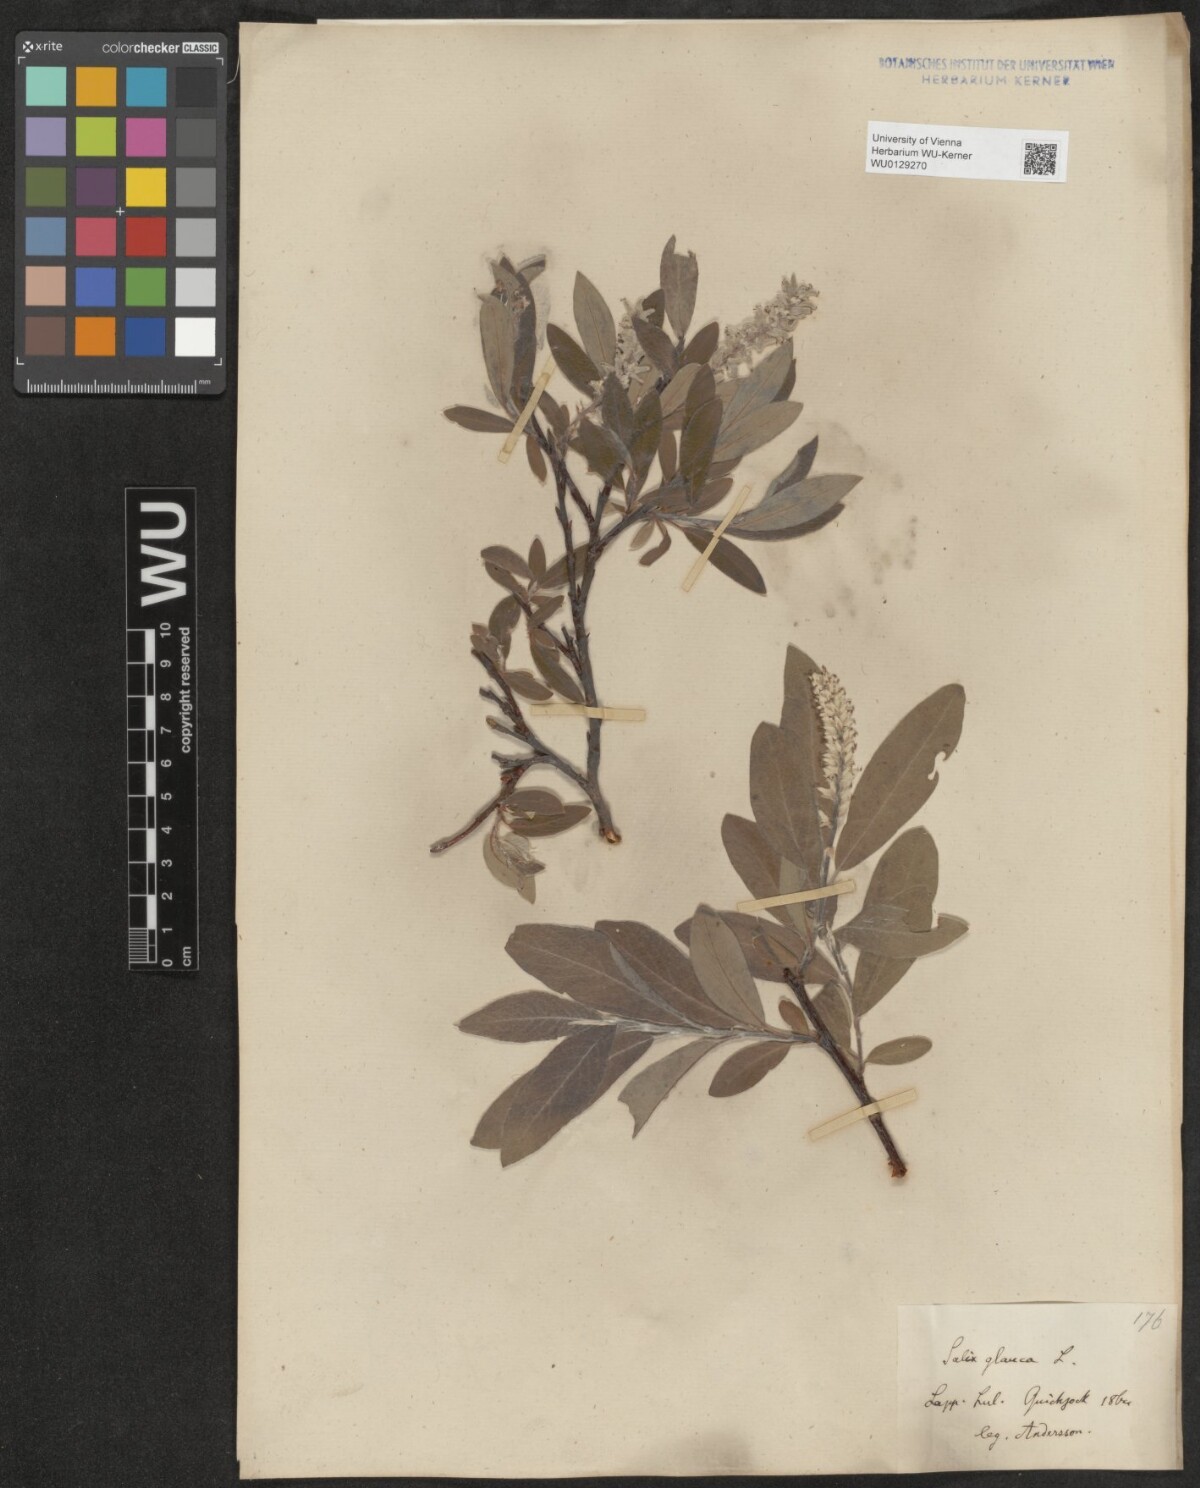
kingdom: Plantae
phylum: Tracheophyta
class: Magnoliopsida
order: Malpighiales
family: Salicaceae
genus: Salix
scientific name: Salix glauca
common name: Glaucous willow
